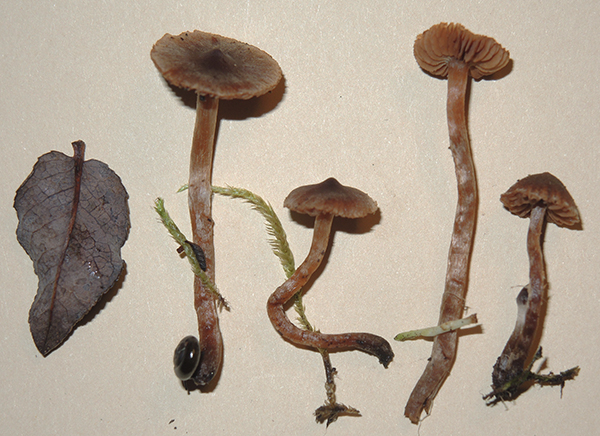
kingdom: Fungi
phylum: Basidiomycota
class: Agaricomycetes
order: Agaricales
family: Cortinariaceae
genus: Cortinarius
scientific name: Cortinarius desertorum
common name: skær slørhat
